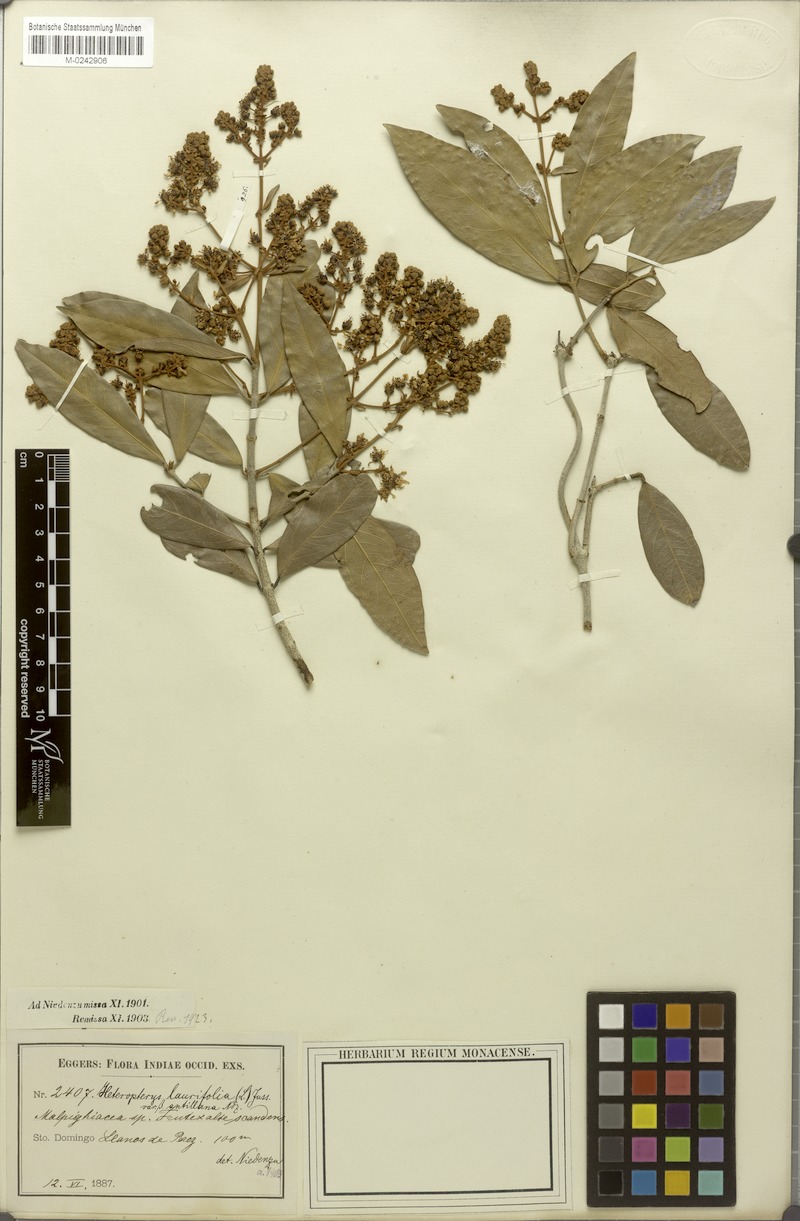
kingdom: Plantae
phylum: Tracheophyta
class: Magnoliopsida
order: Malpighiales
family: Malpighiaceae
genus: Heteropterys
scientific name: Heteropterys laurifolia
